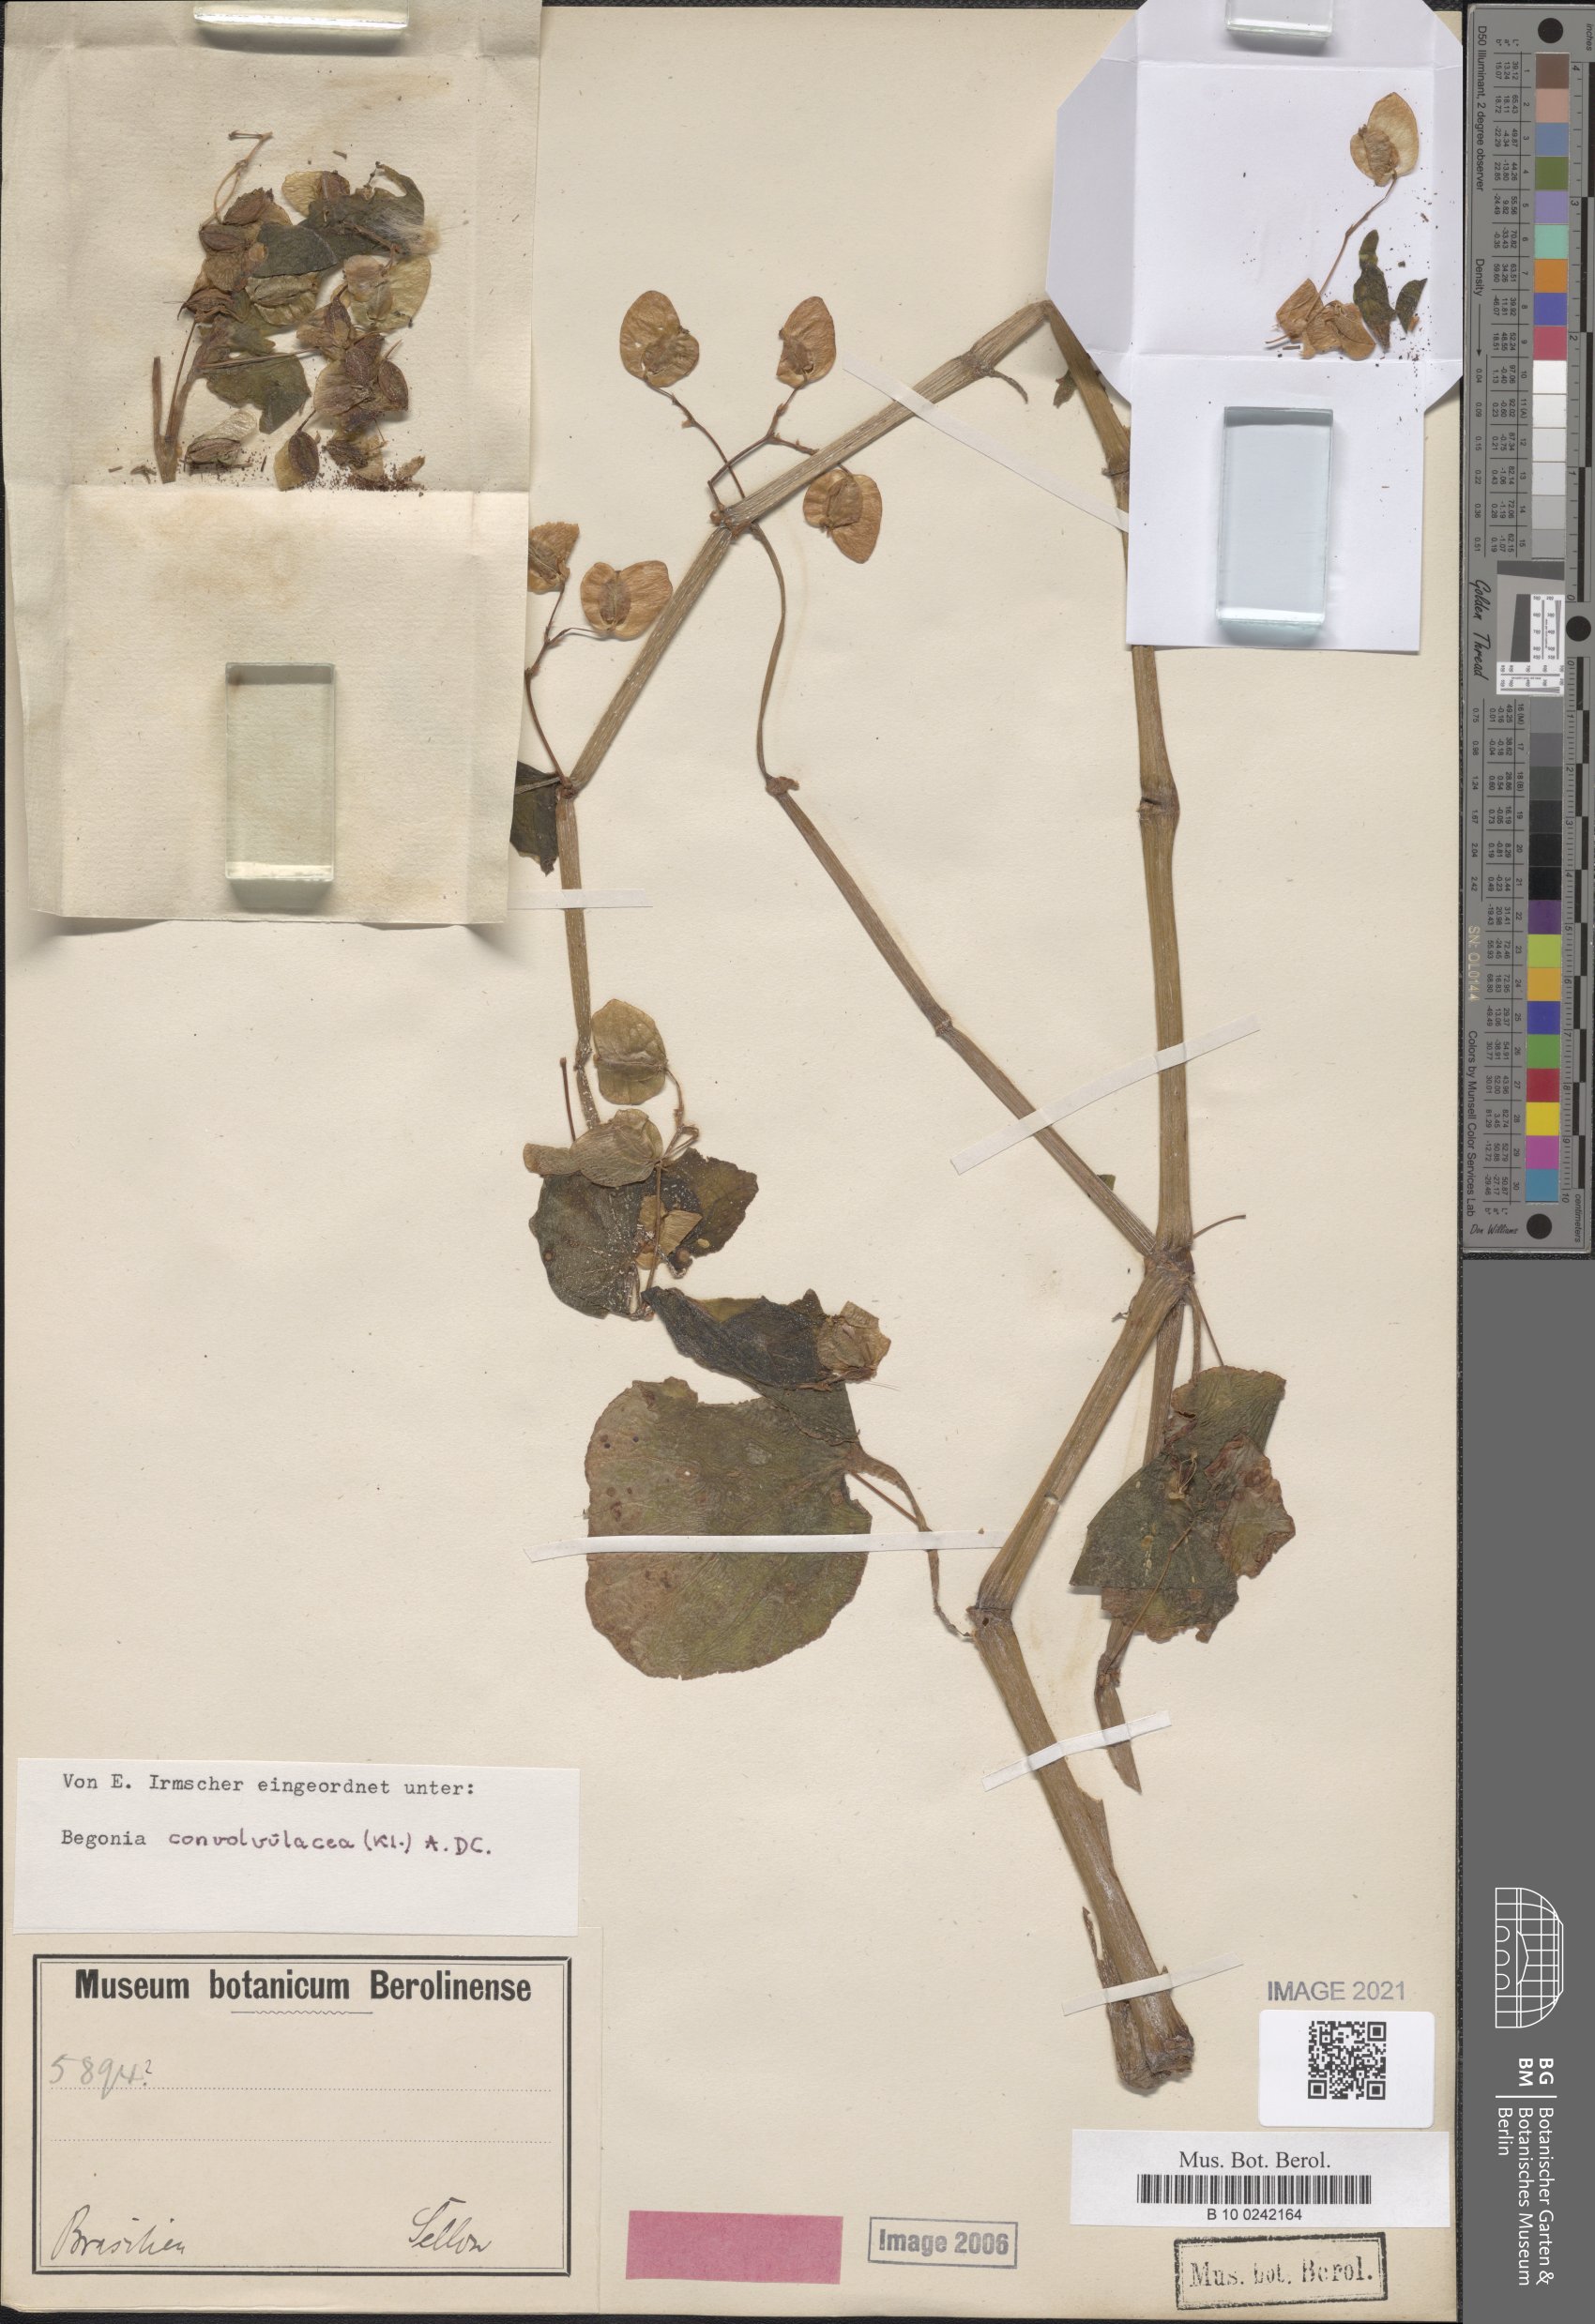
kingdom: Plantae
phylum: Tracheophyta
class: Magnoliopsida
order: Cucurbitales
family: Begoniaceae
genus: Begonia
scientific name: Begonia convolvulacea
